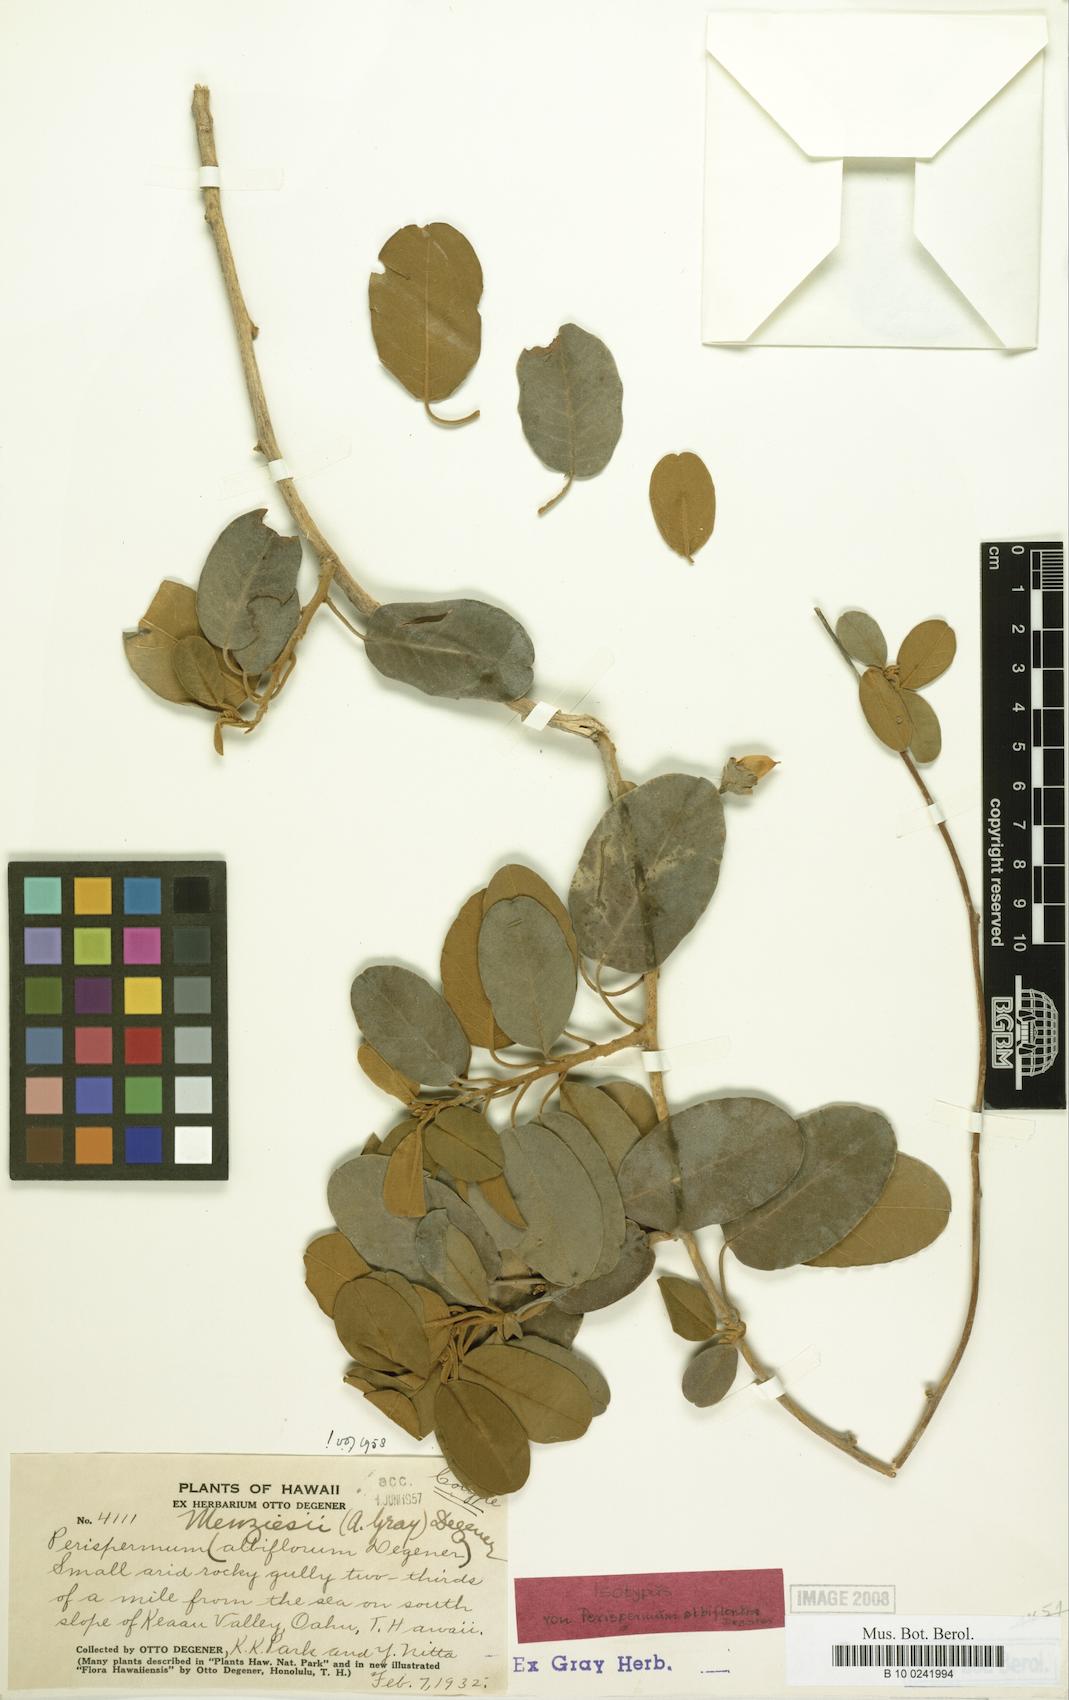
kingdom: Plantae
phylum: Tracheophyta
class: Magnoliopsida
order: Solanales
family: Convolvulaceae
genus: Bonamia
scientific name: Bonamia menziesii
